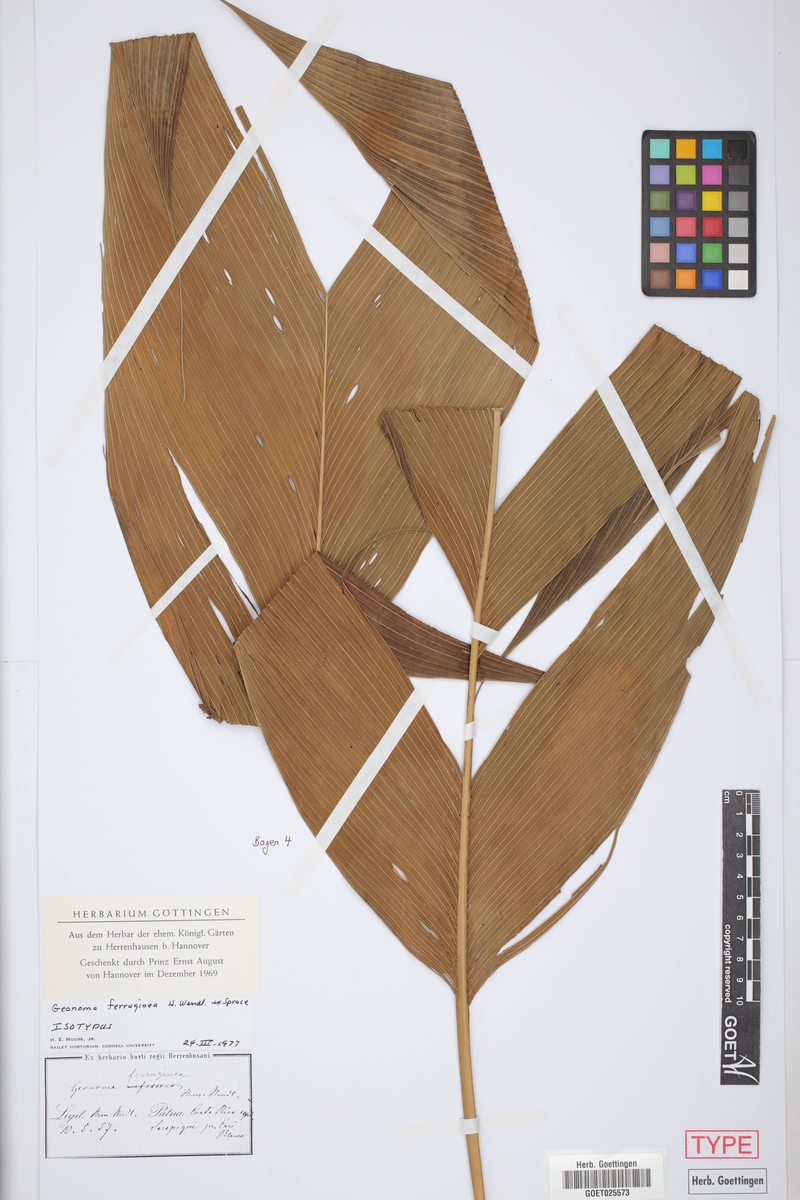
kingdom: Plantae
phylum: Tracheophyta
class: Liliopsida
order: Arecales
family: Arecaceae
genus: Geonoma
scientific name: Geonoma ferruginea
